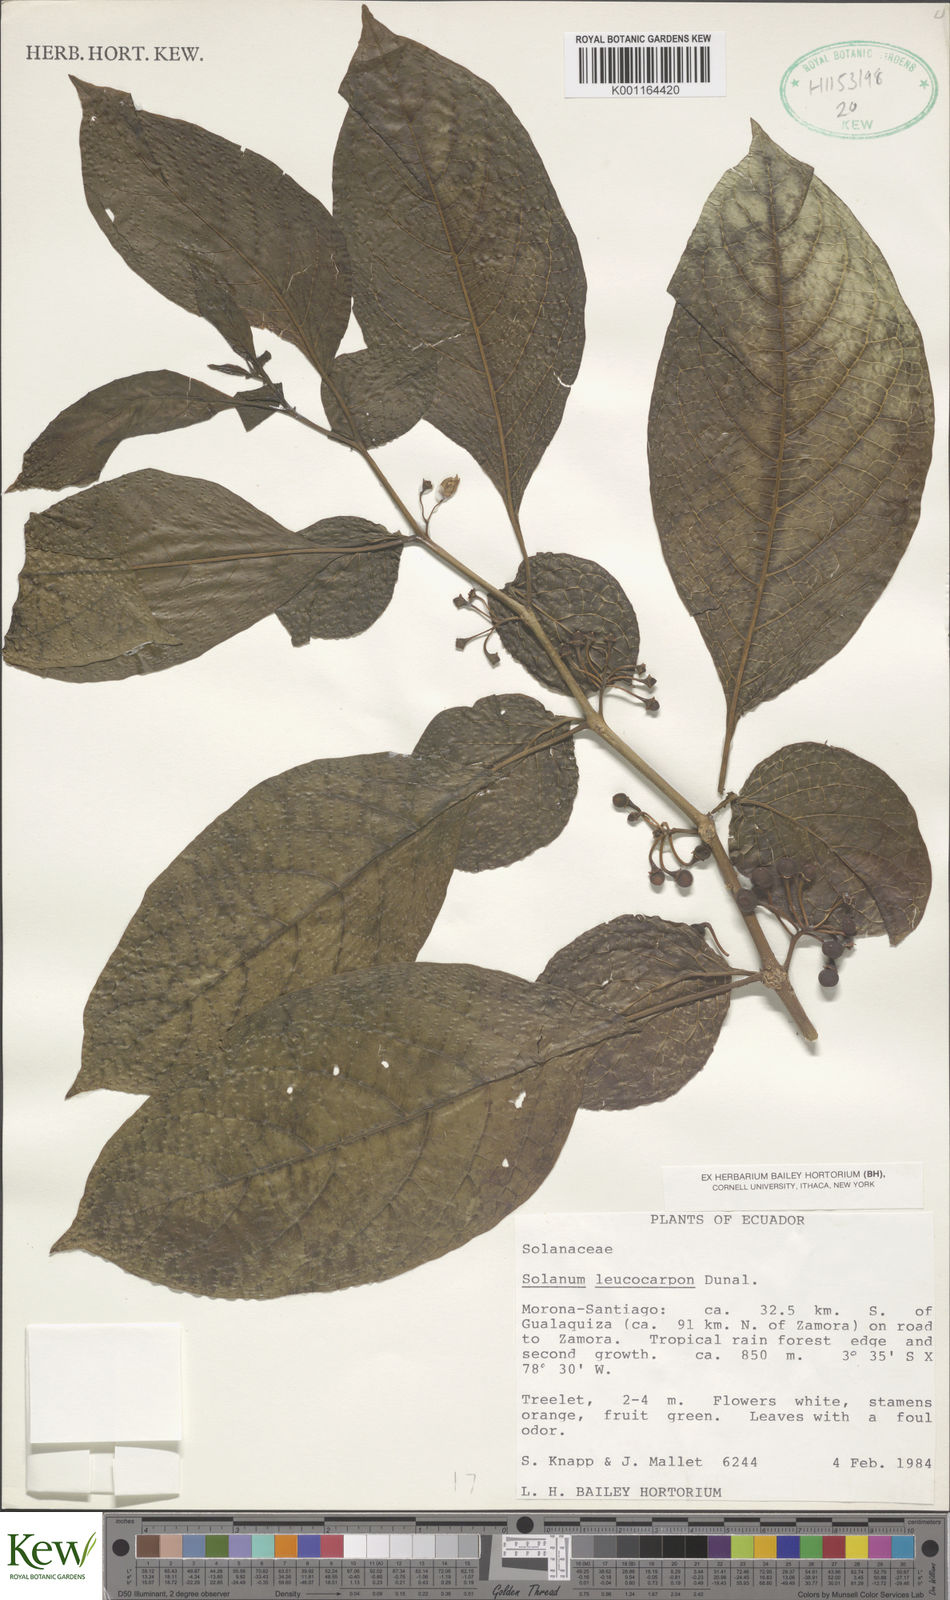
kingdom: Plantae
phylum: Tracheophyta
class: Magnoliopsida
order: Solanales
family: Solanaceae
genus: Solanum
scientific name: Solanum leucocarpon
